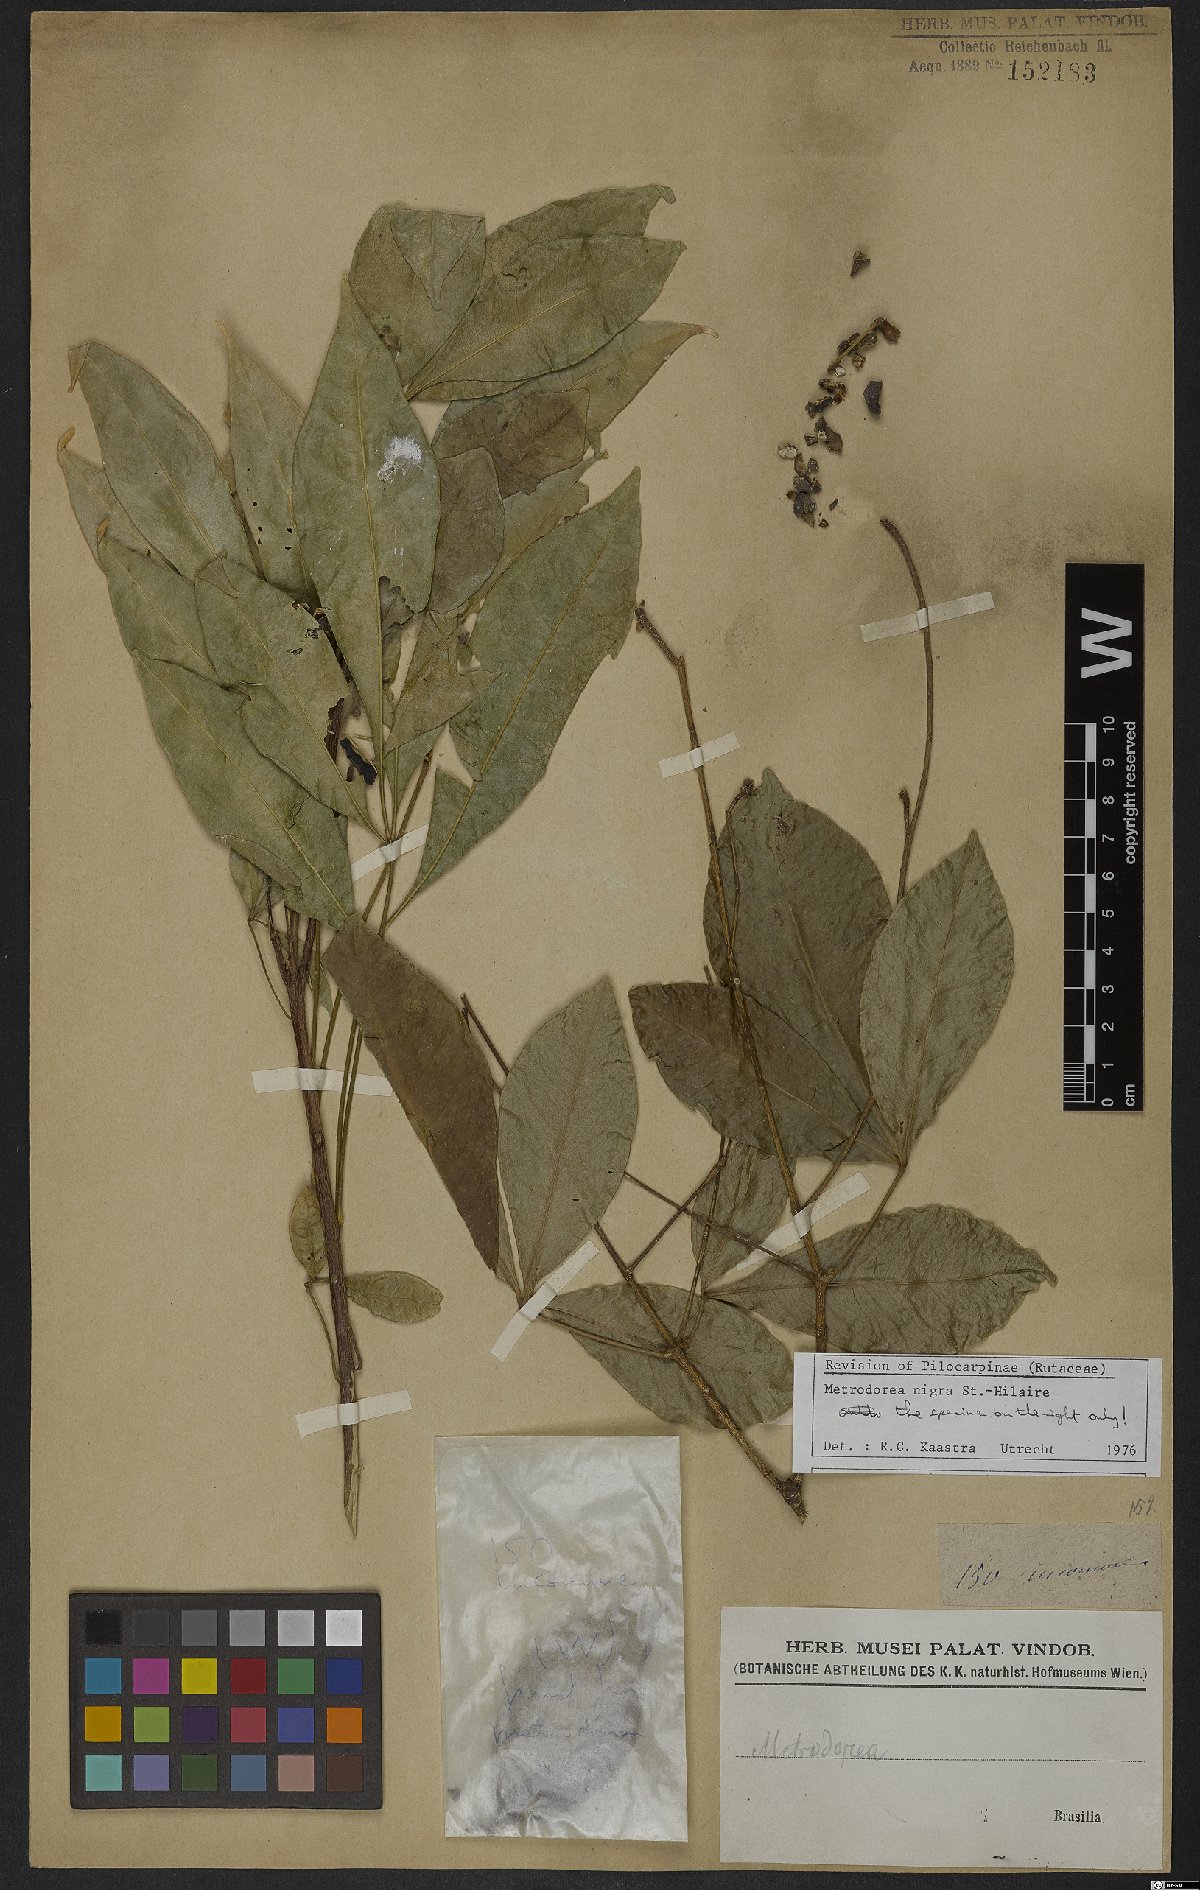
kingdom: Plantae
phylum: Tracheophyta
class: Magnoliopsida
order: Sapindales
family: Rutaceae
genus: Metrodorea
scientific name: Metrodorea nigra
